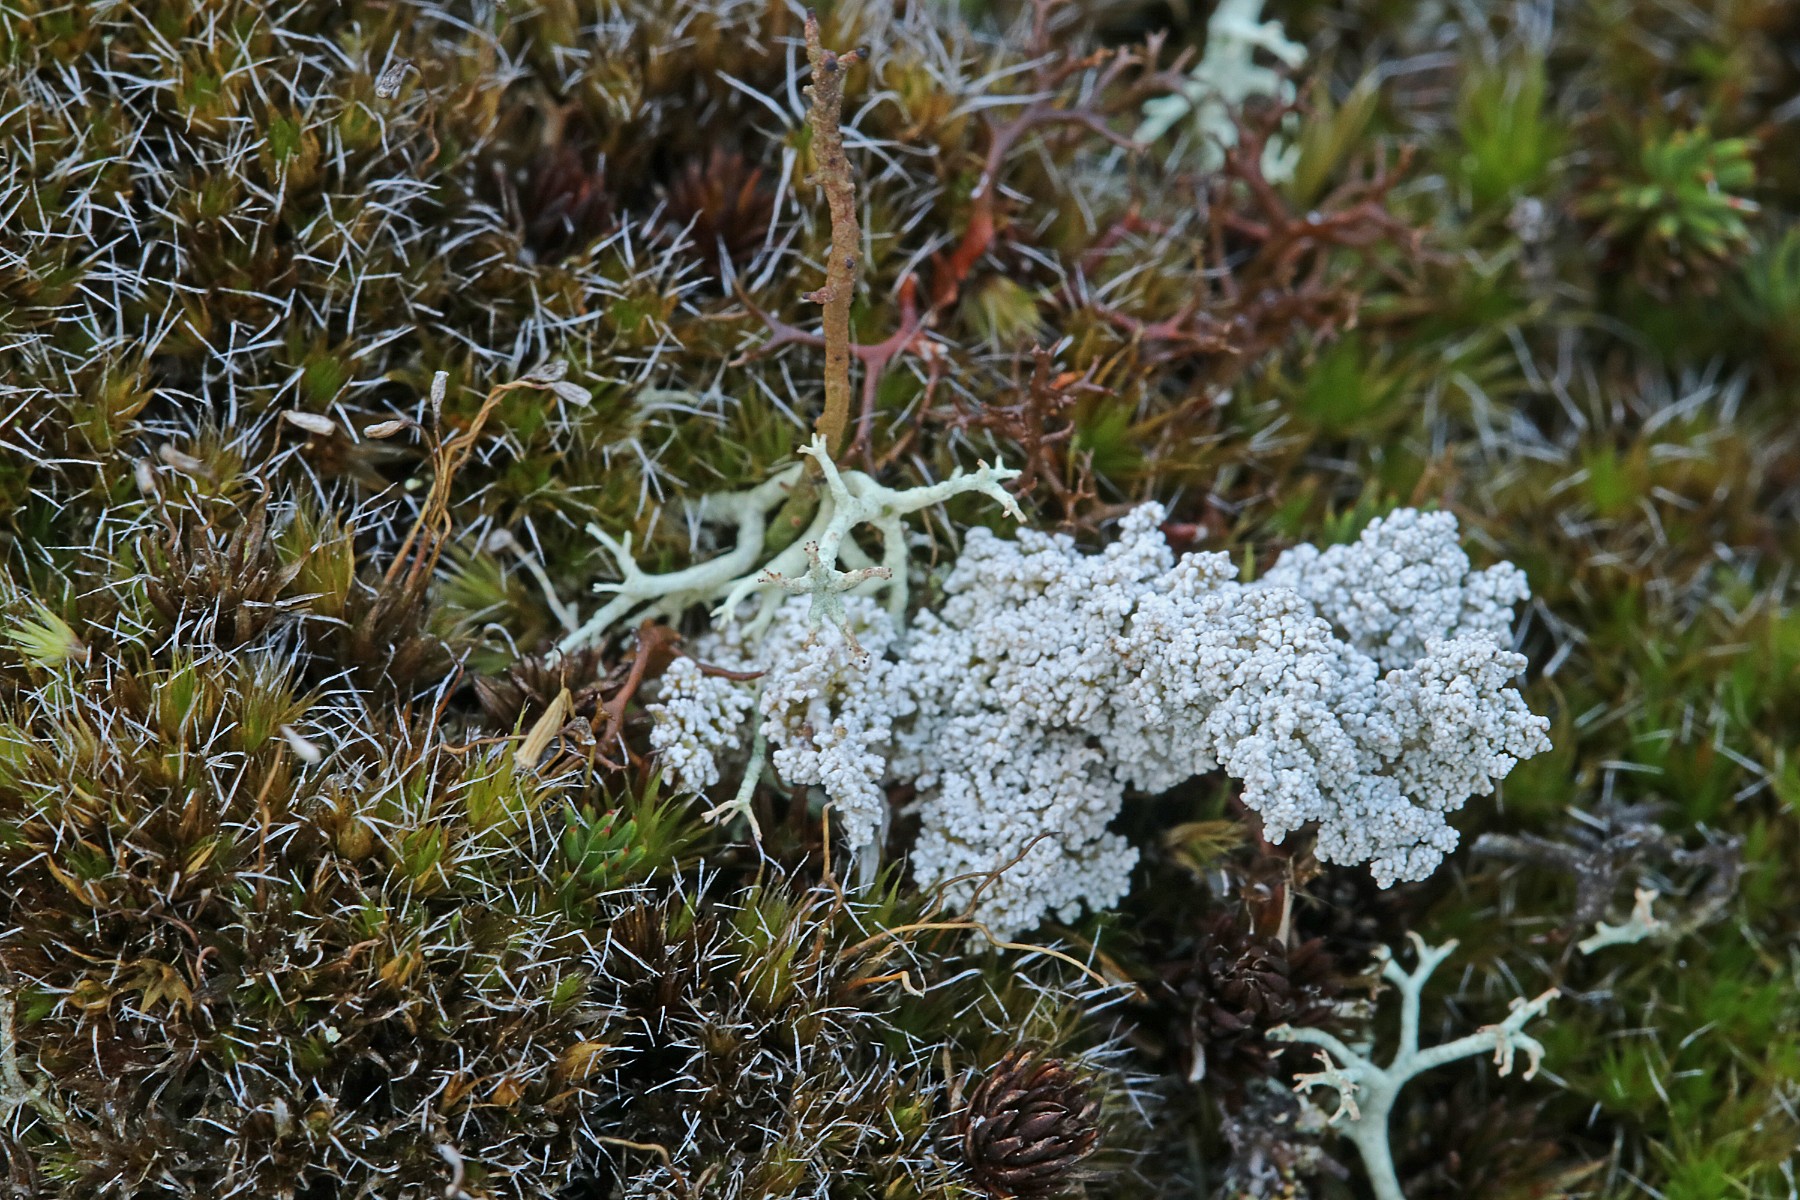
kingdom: Fungi
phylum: Ascomycota
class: Lecanoromycetes
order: Lecanorales
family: Stereocaulaceae
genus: Stereocaulon
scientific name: Stereocaulon saxatile
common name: klit-korallav
